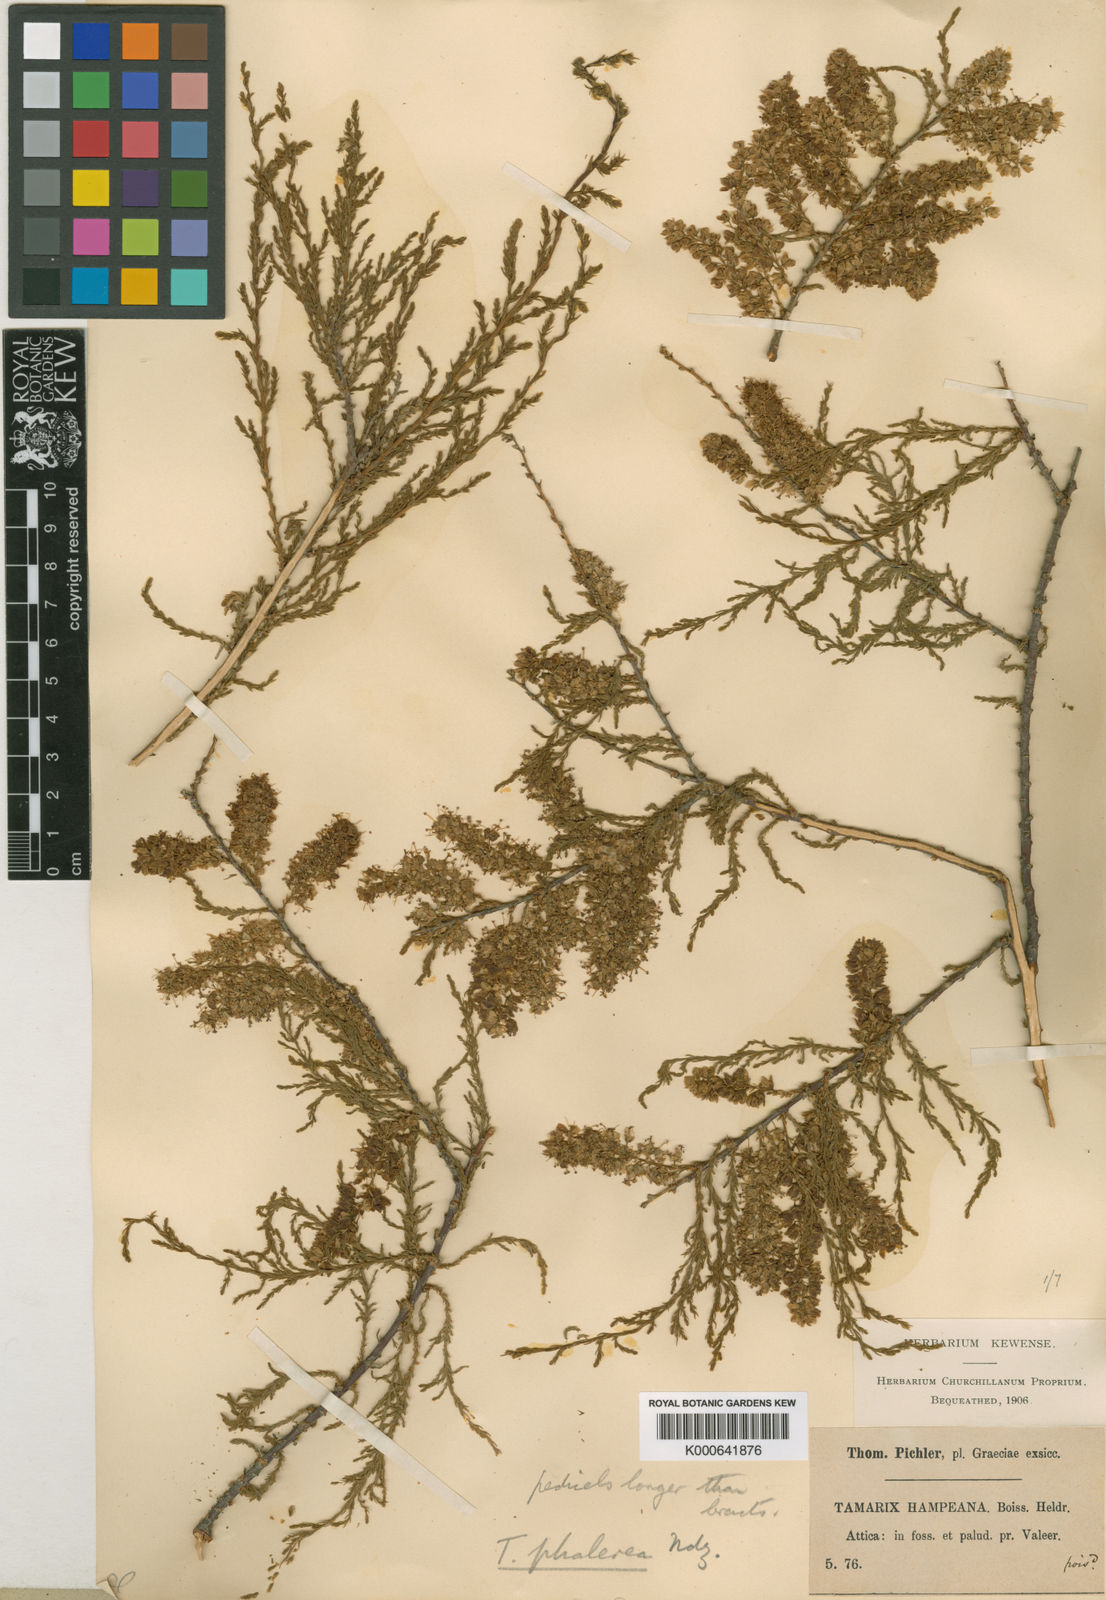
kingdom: Plantae
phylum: Tracheophyta
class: Magnoliopsida
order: Caryophyllales
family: Tamaricaceae
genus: Tamarix
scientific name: Tamarix hampeana
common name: Hampe’s tamarisk
